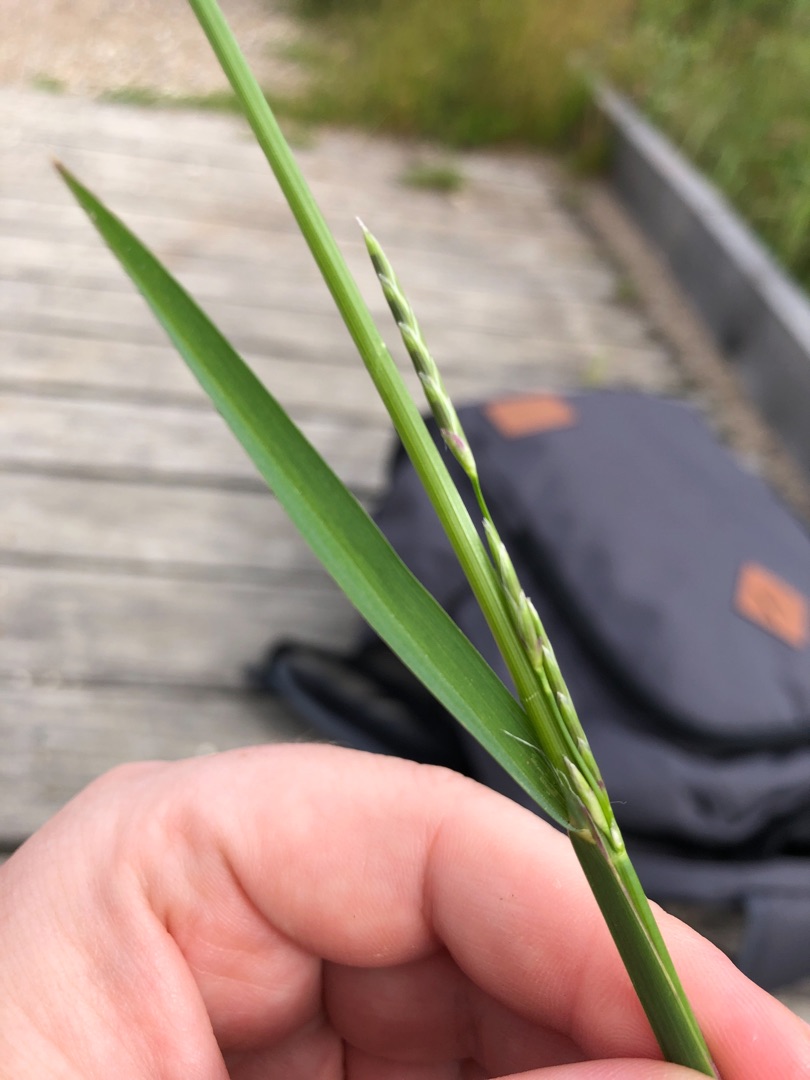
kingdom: Plantae
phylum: Tracheophyta
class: Liliopsida
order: Poales
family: Poaceae
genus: Glyceria
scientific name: Glyceria fluitans
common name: Manna-sødgræs
